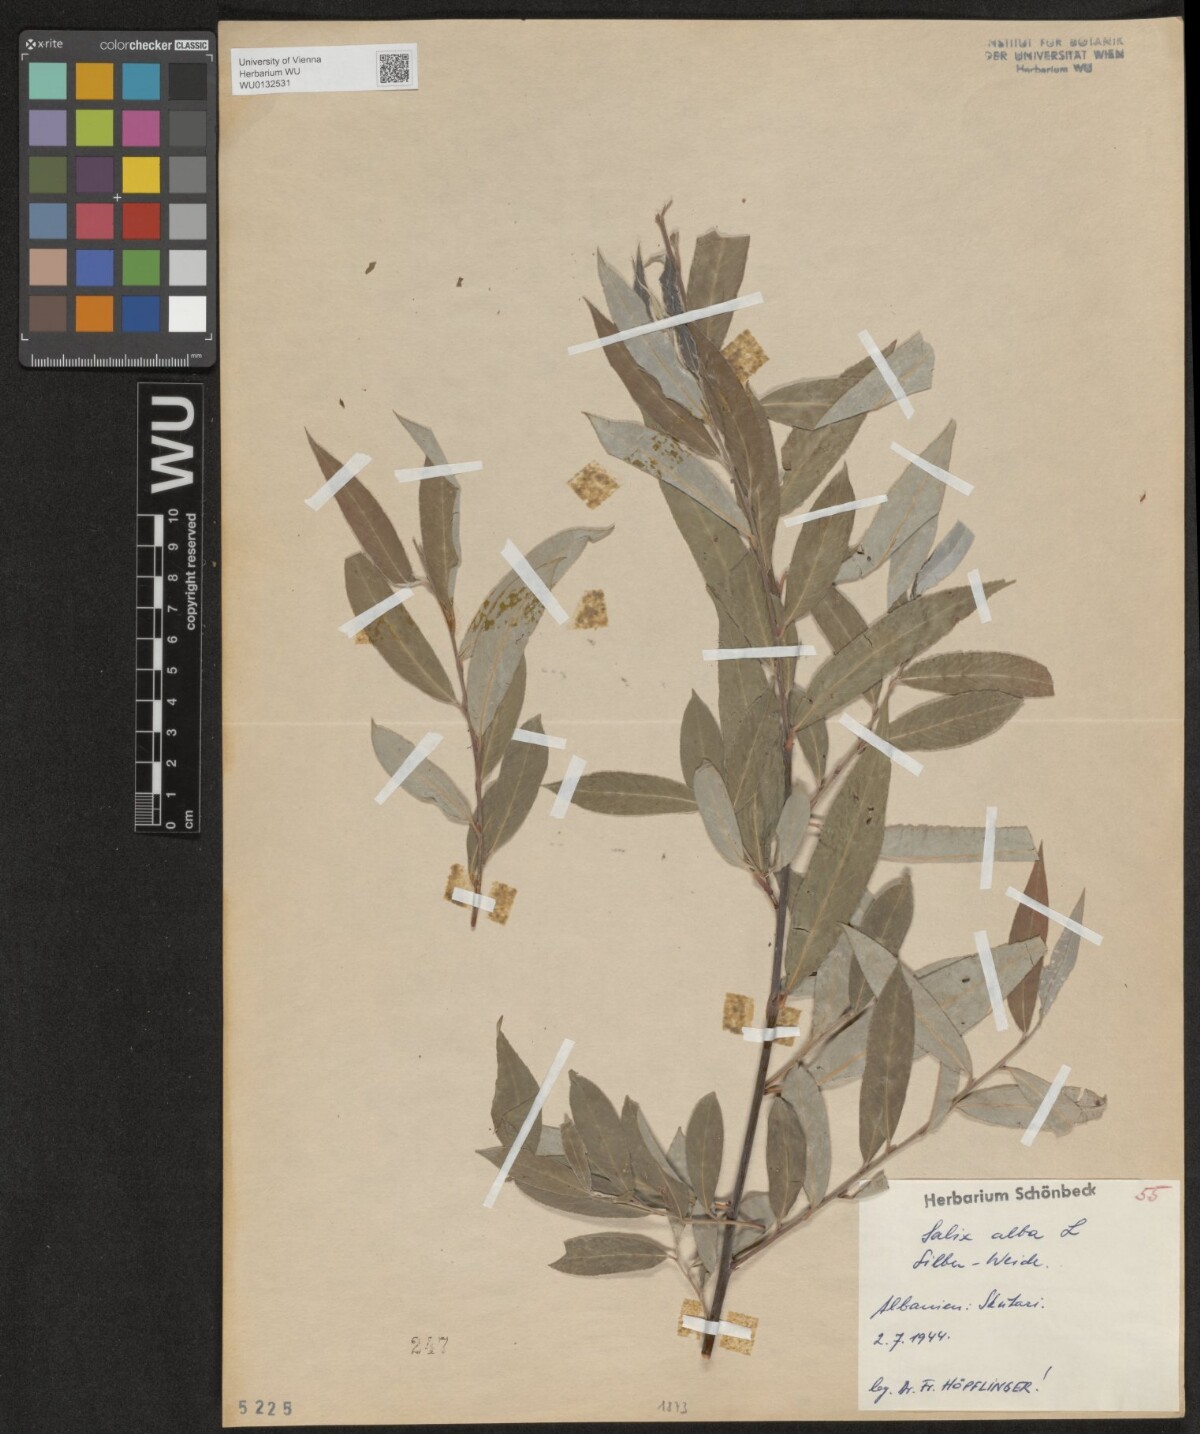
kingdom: Plantae
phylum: Tracheophyta
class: Magnoliopsida
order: Malpighiales
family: Salicaceae
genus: Salix
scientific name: Salix alba
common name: White willow
